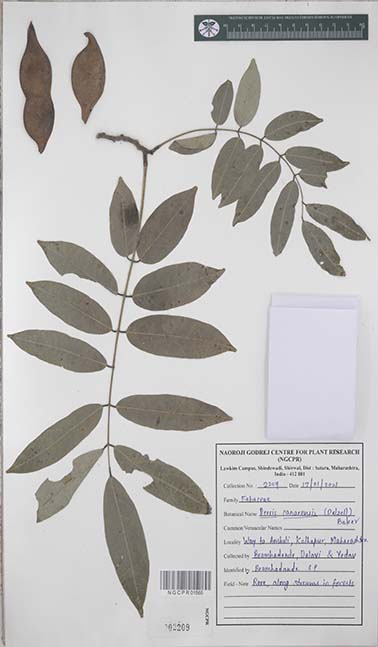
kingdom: Plantae
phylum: Tracheophyta
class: Magnoliopsida
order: Fabales
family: Fabaceae
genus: Derris
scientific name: Derris canarensis
